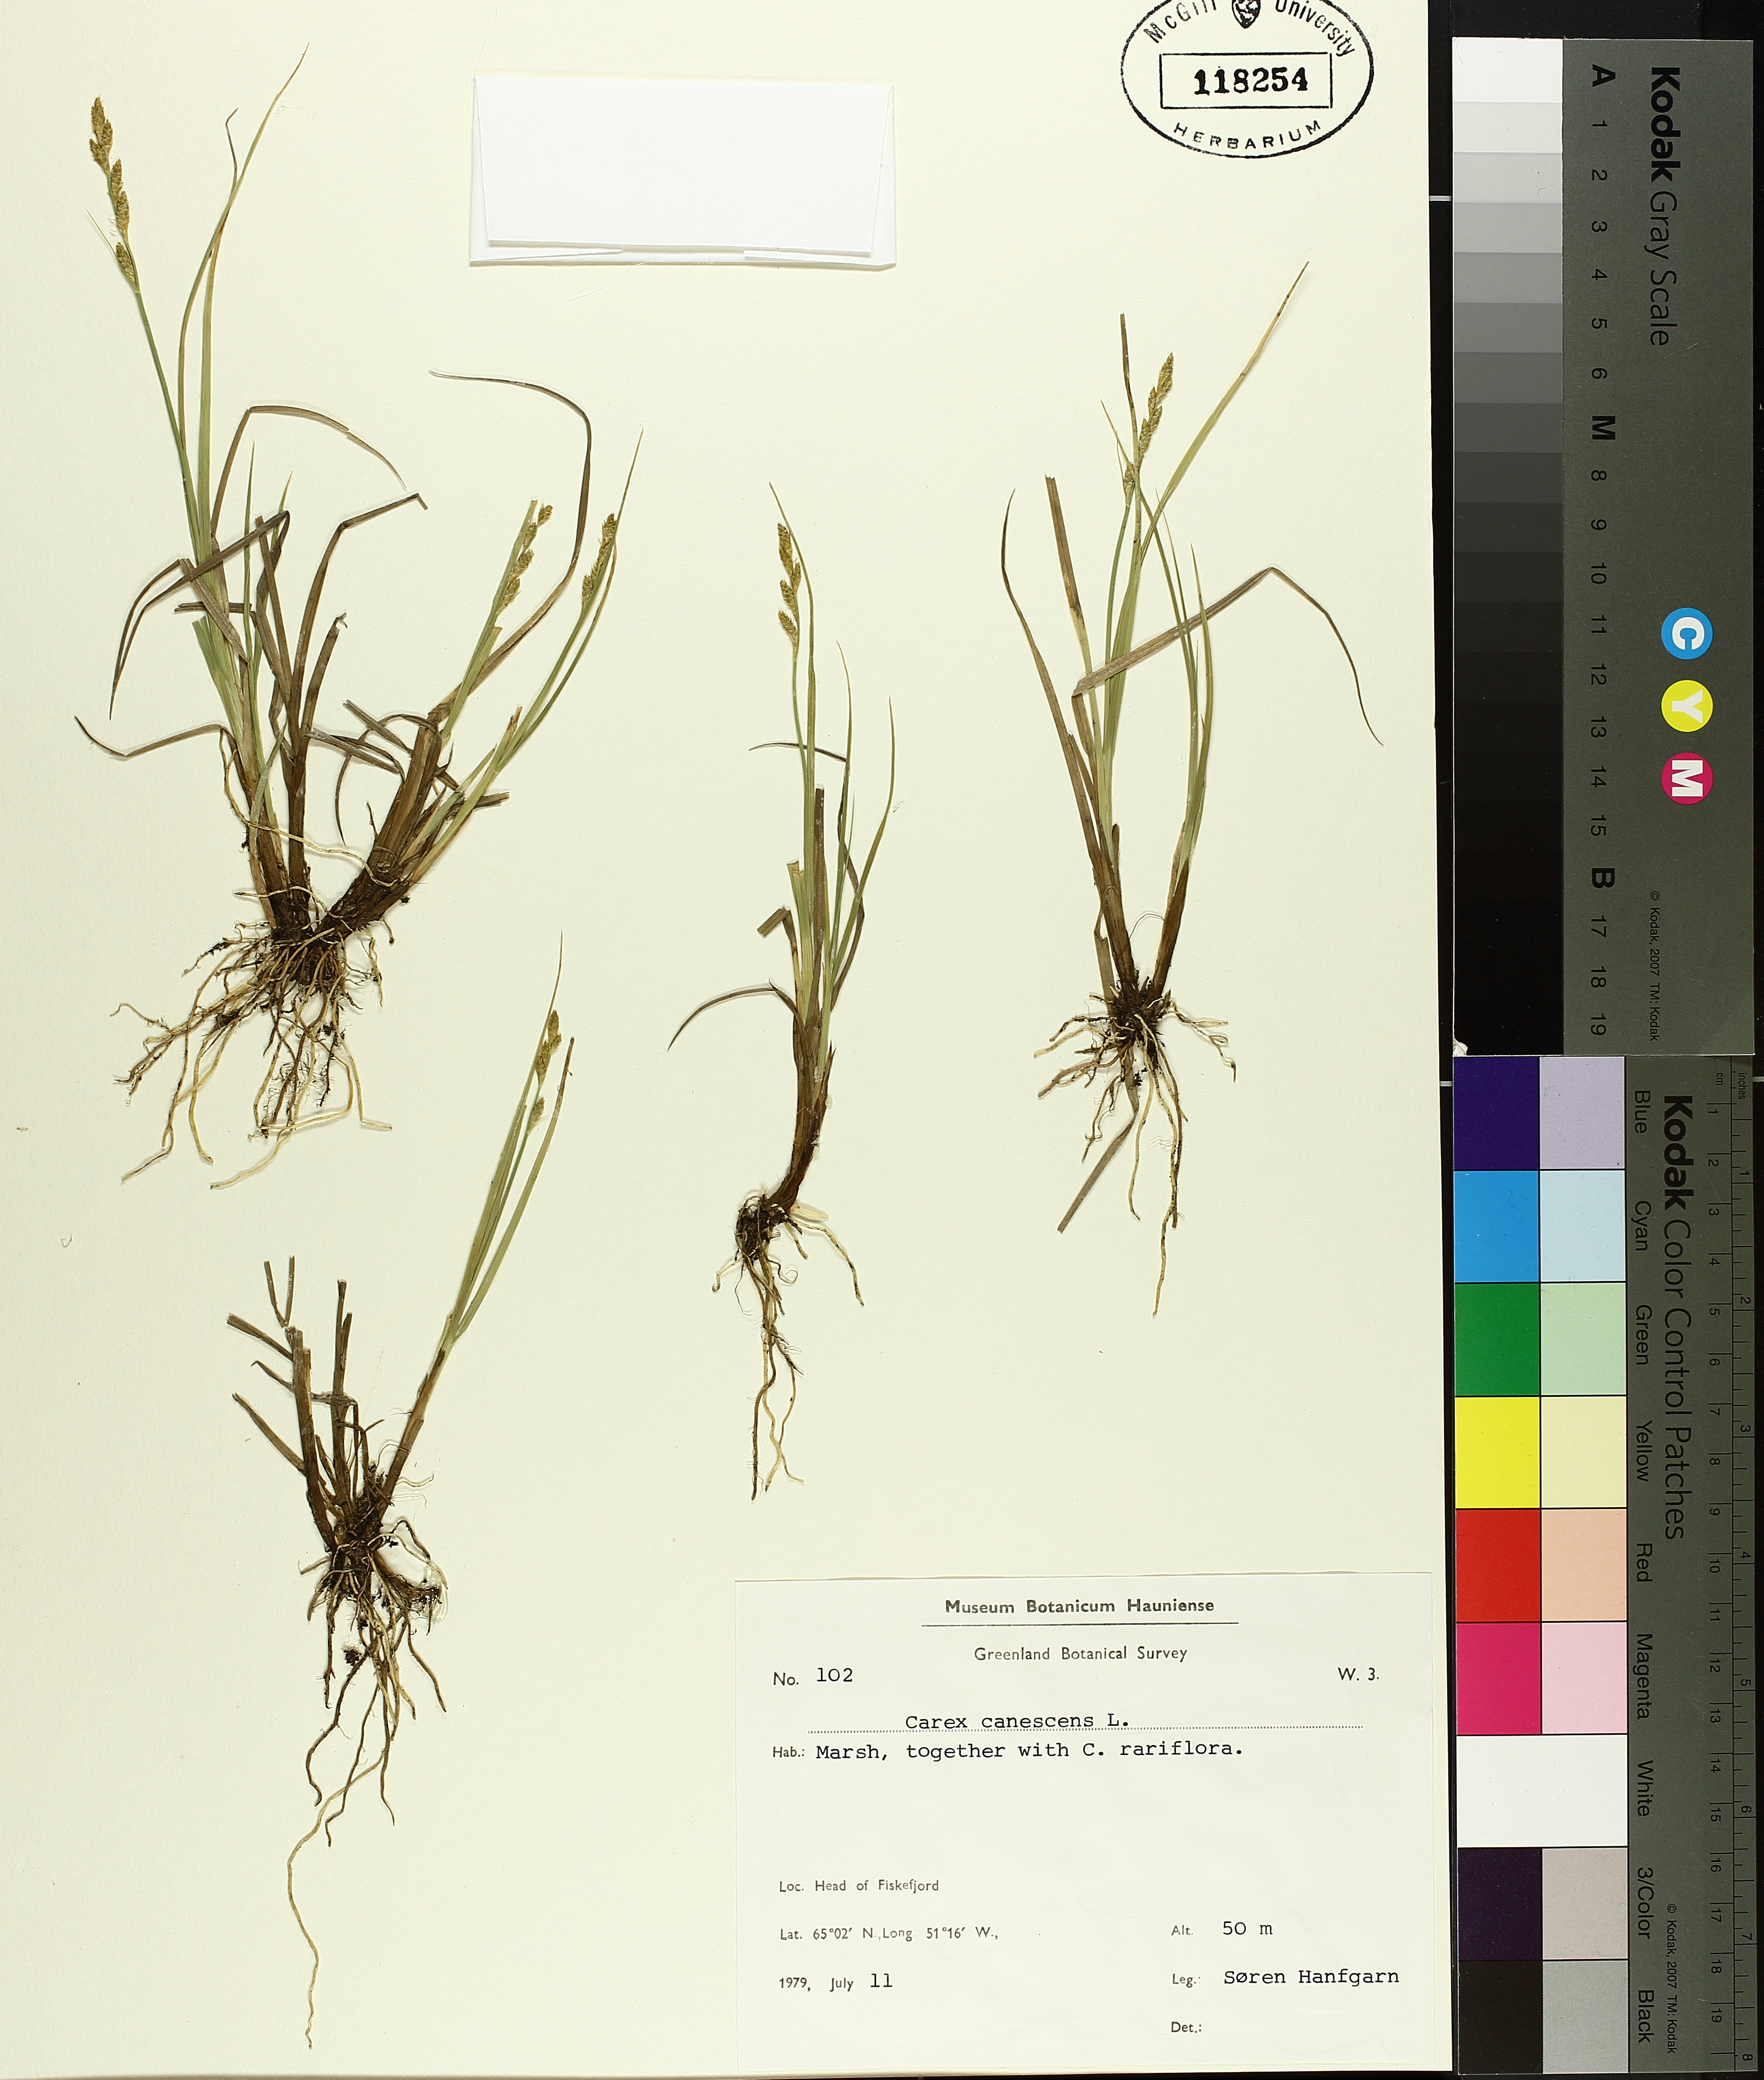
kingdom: Plantae
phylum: Tracheophyta
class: Liliopsida
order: Poales
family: Cyperaceae
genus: Carex
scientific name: Carex canescens
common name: White sedge
